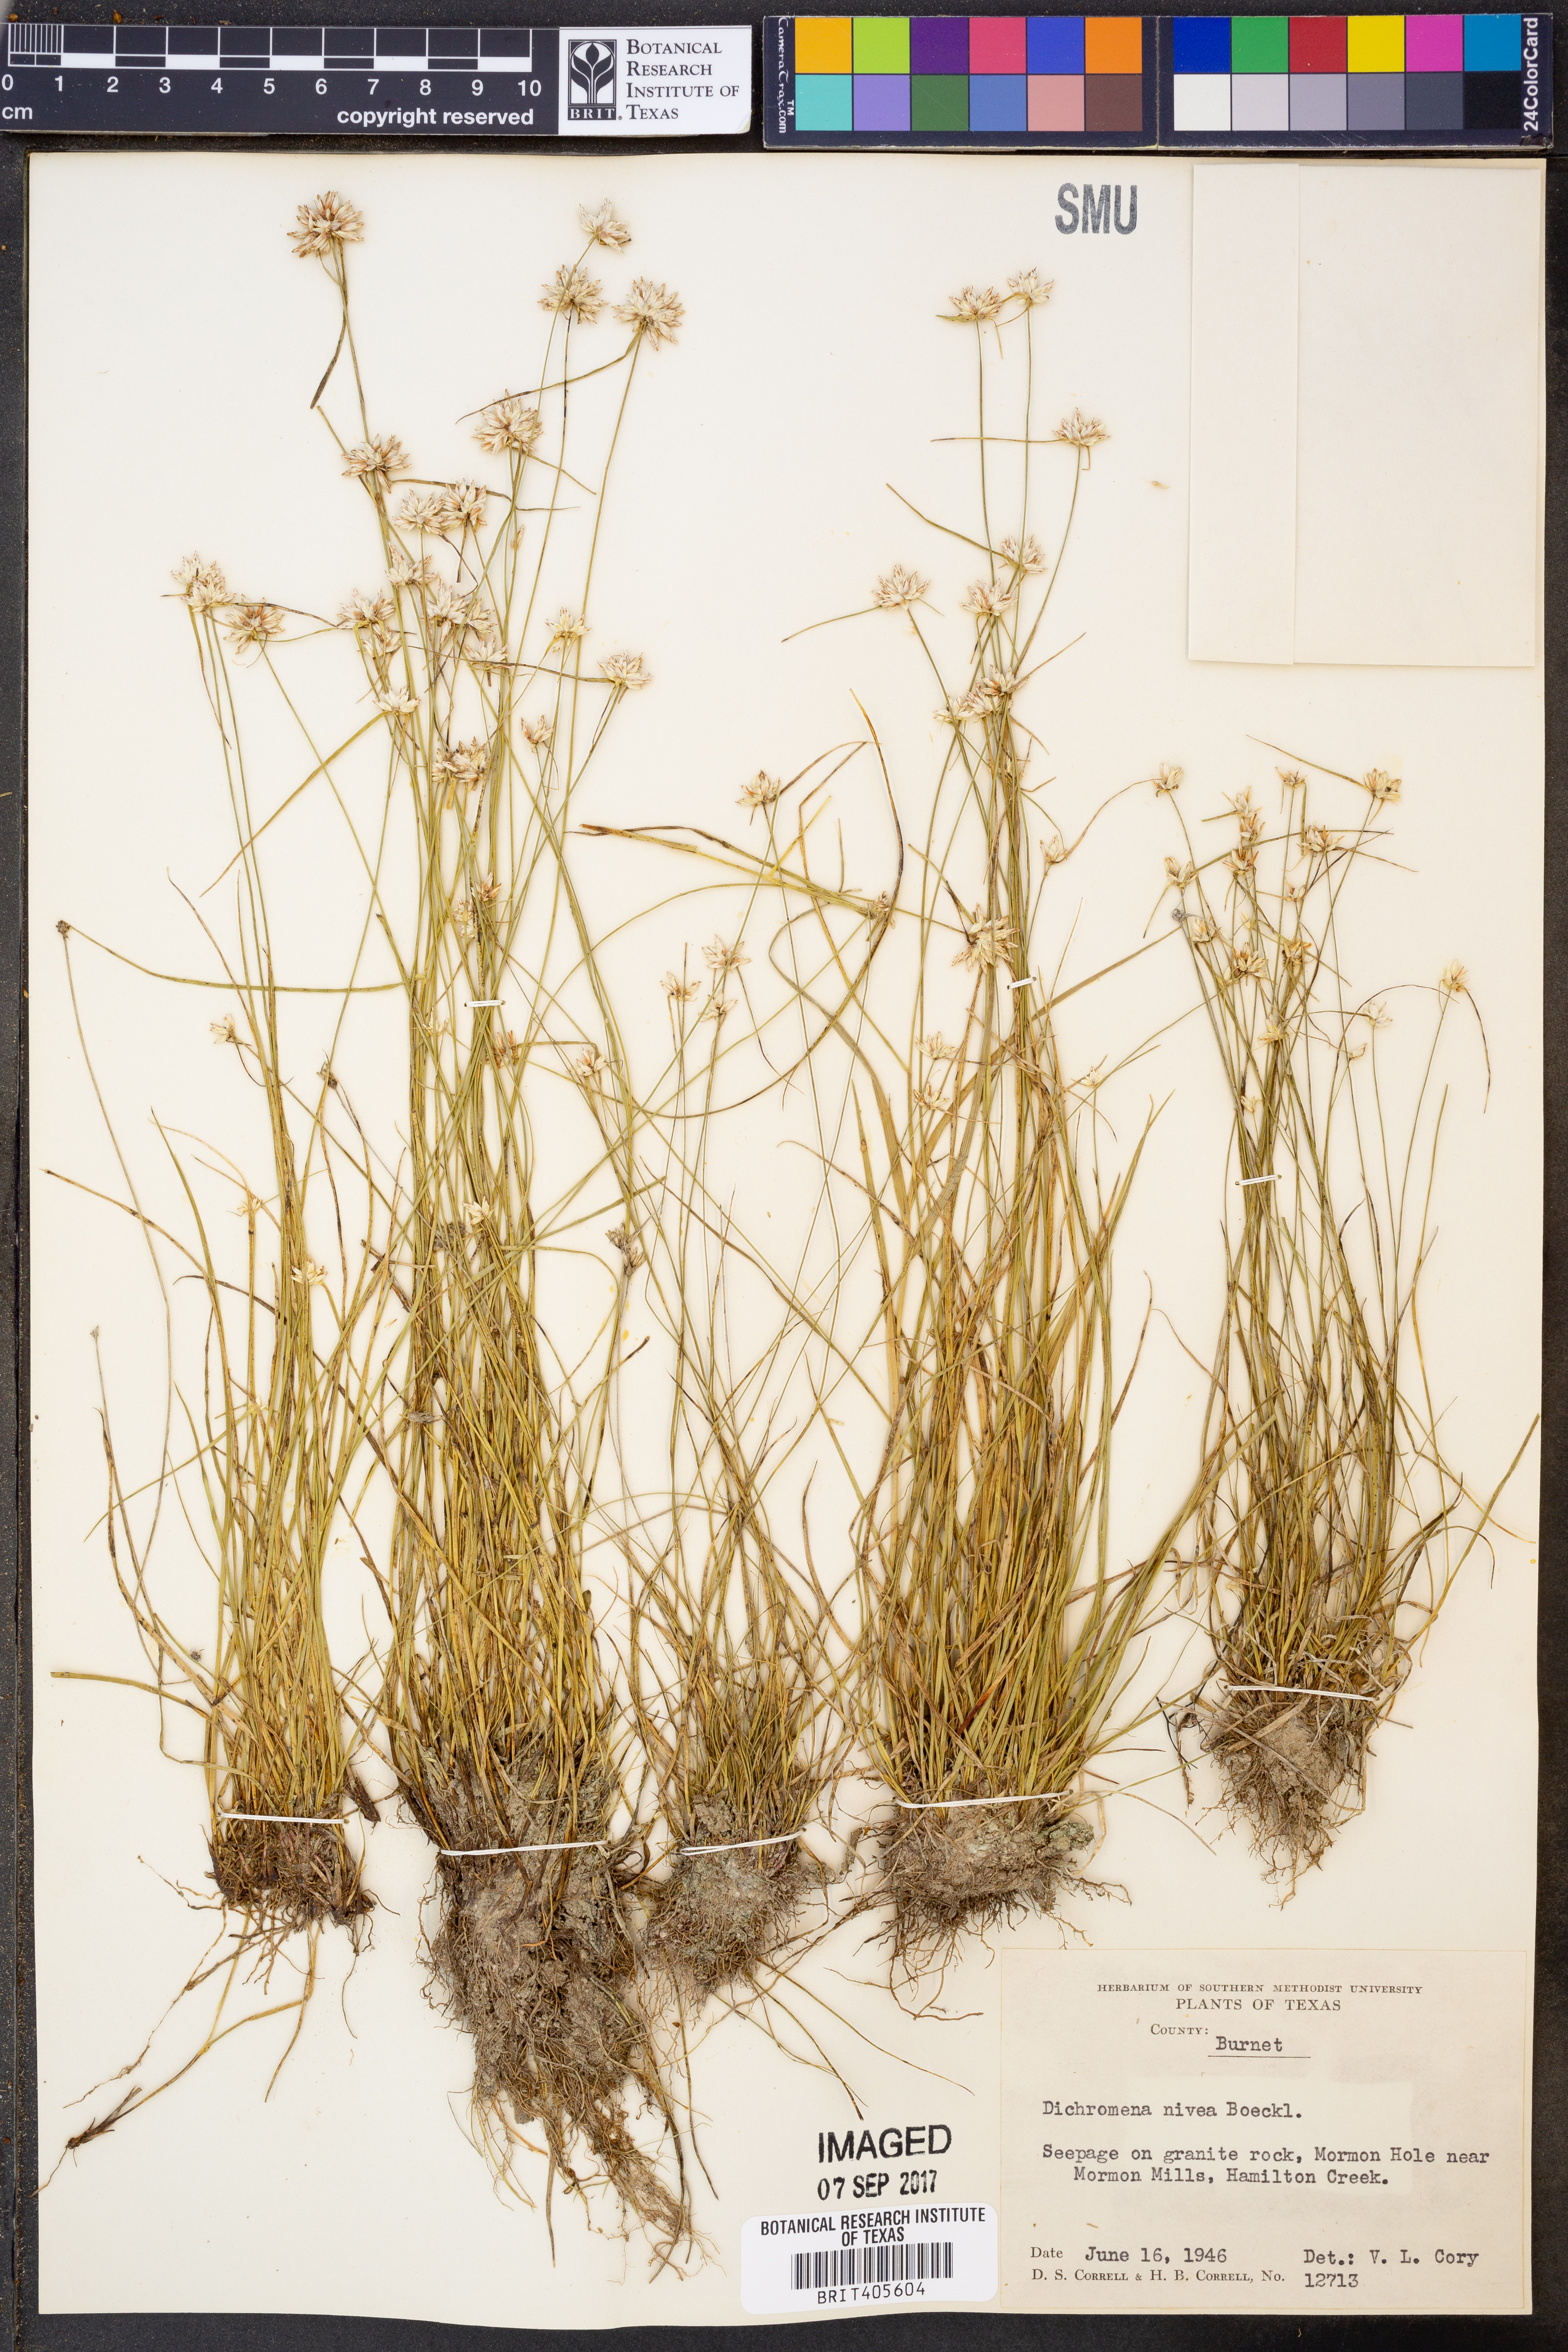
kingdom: Plantae
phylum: Tracheophyta
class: Liliopsida
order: Poales
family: Cyperaceae
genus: Rhynchospora
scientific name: Rhynchospora nivea
